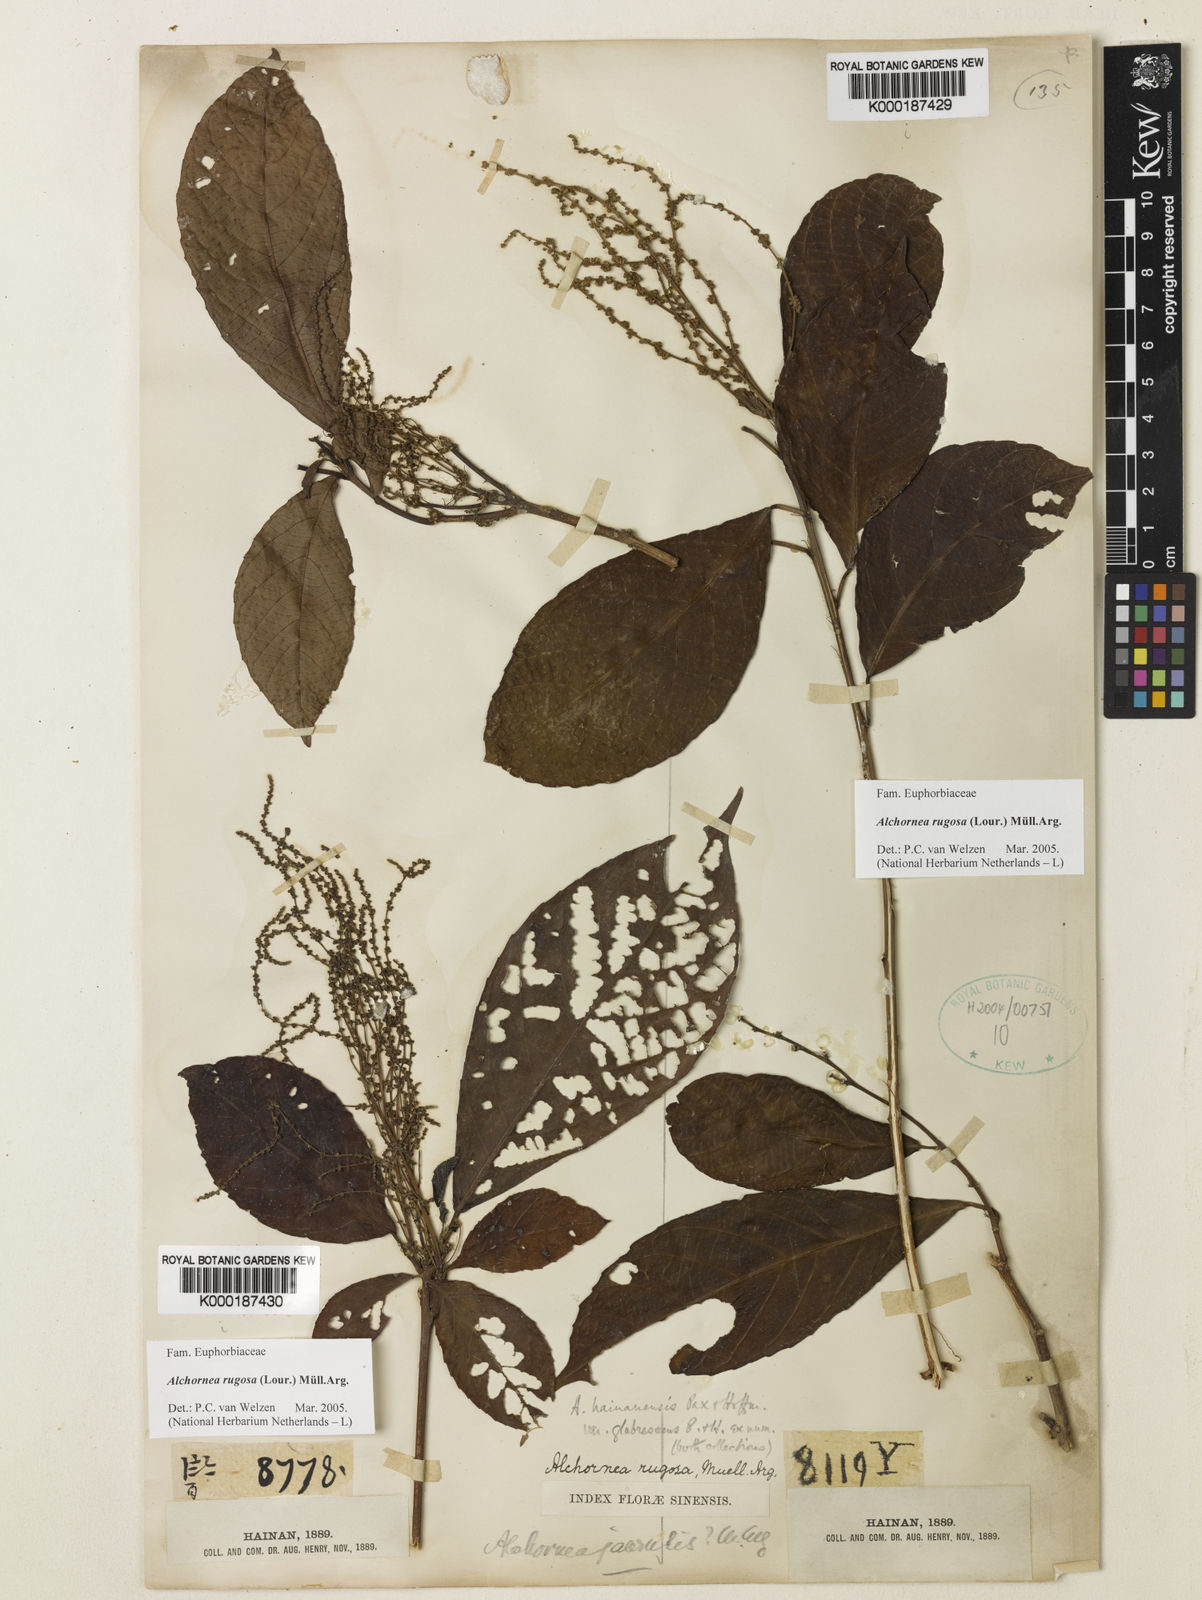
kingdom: Plantae
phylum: Tracheophyta
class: Magnoliopsida
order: Malpighiales
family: Euphorbiaceae
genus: Alchornea
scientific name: Alchornea
